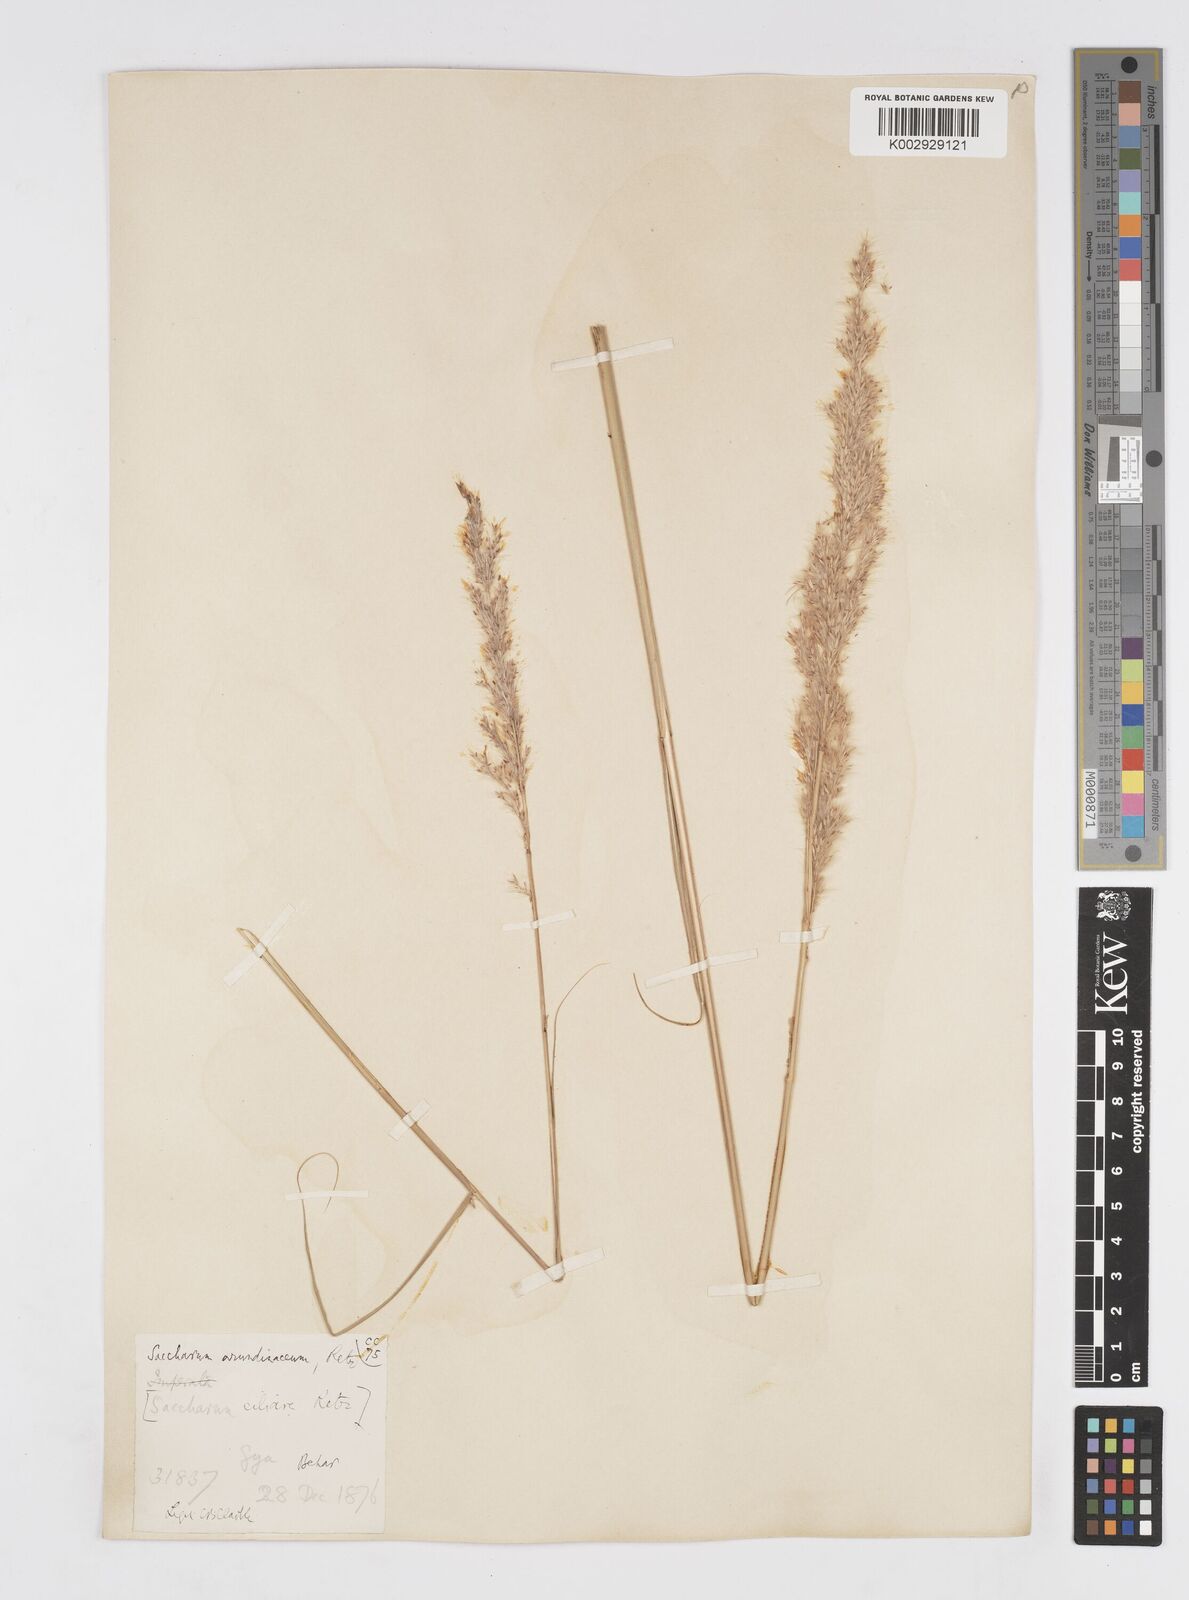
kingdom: Plantae
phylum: Tracheophyta
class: Liliopsida
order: Poales
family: Poaceae
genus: Tripidium
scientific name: Tripidium bengalense
